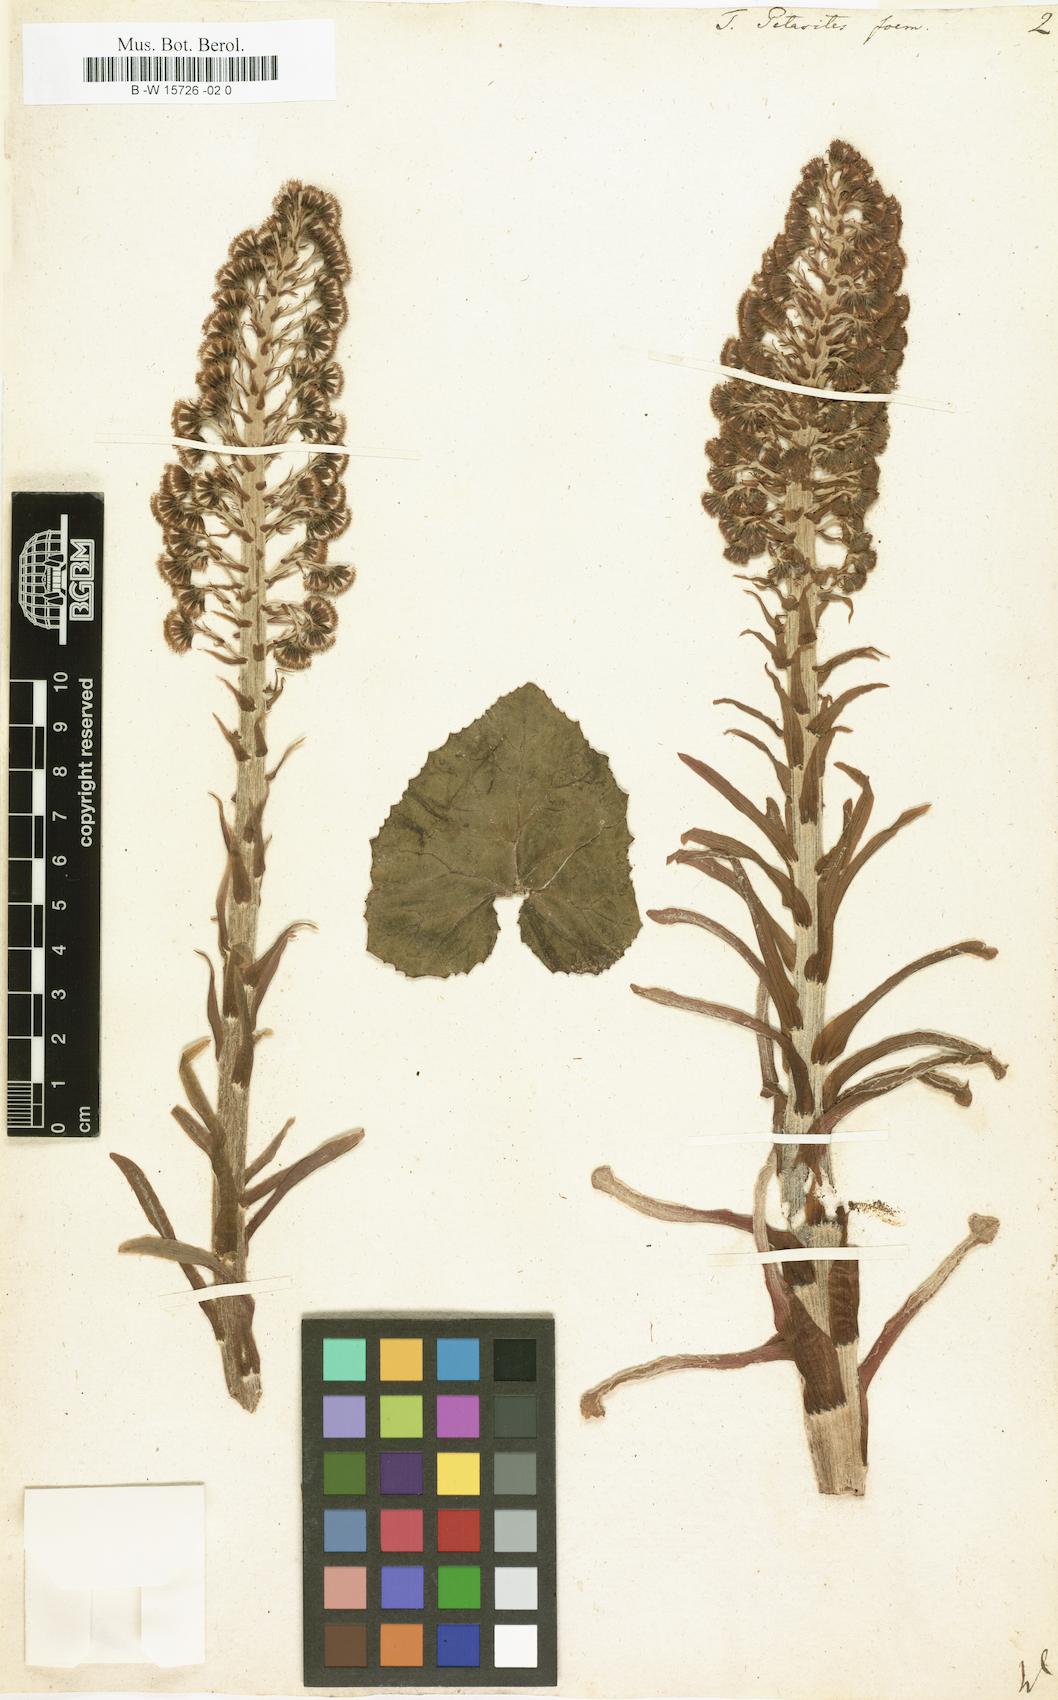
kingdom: Plantae
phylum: Tracheophyta
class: Magnoliopsida
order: Asterales
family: Asteraceae
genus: Petasites
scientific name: Petasites hybridus
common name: Butterbur
